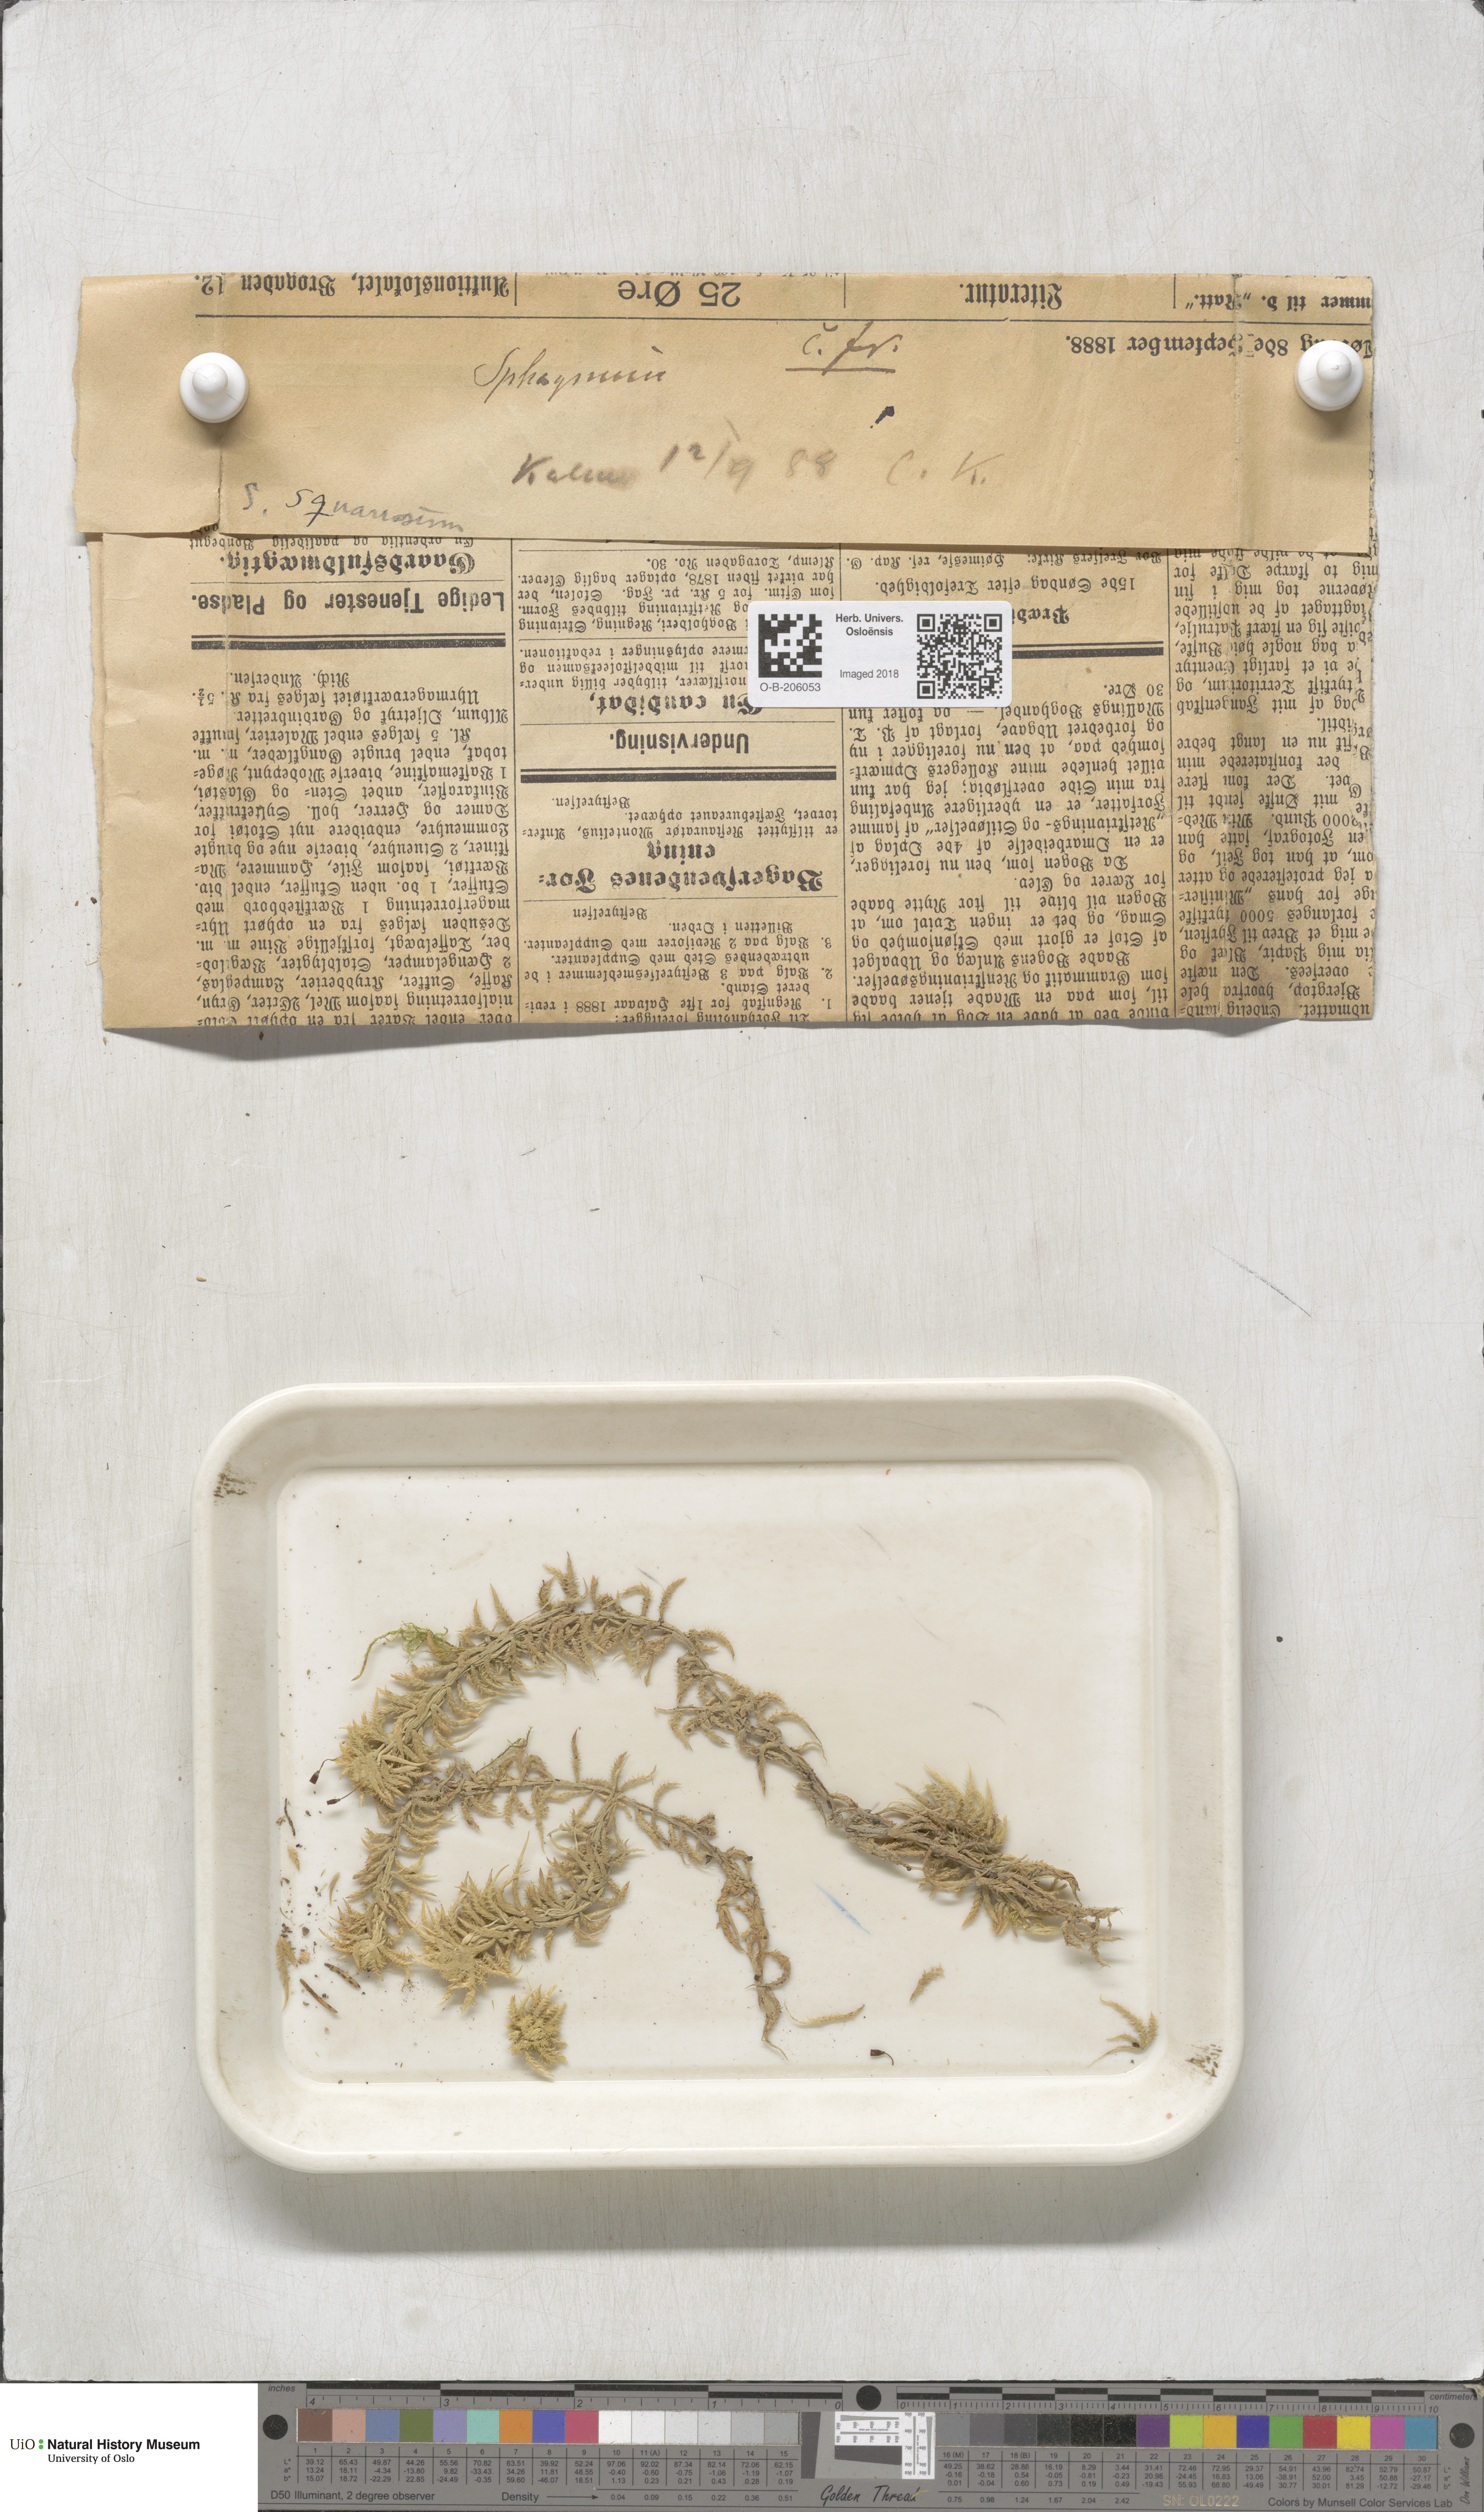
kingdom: Plantae
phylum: Bryophyta
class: Sphagnopsida
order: Sphagnales
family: Sphagnaceae
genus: Sphagnum
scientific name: Sphagnum squarrosum
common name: Shaggy peat moss
